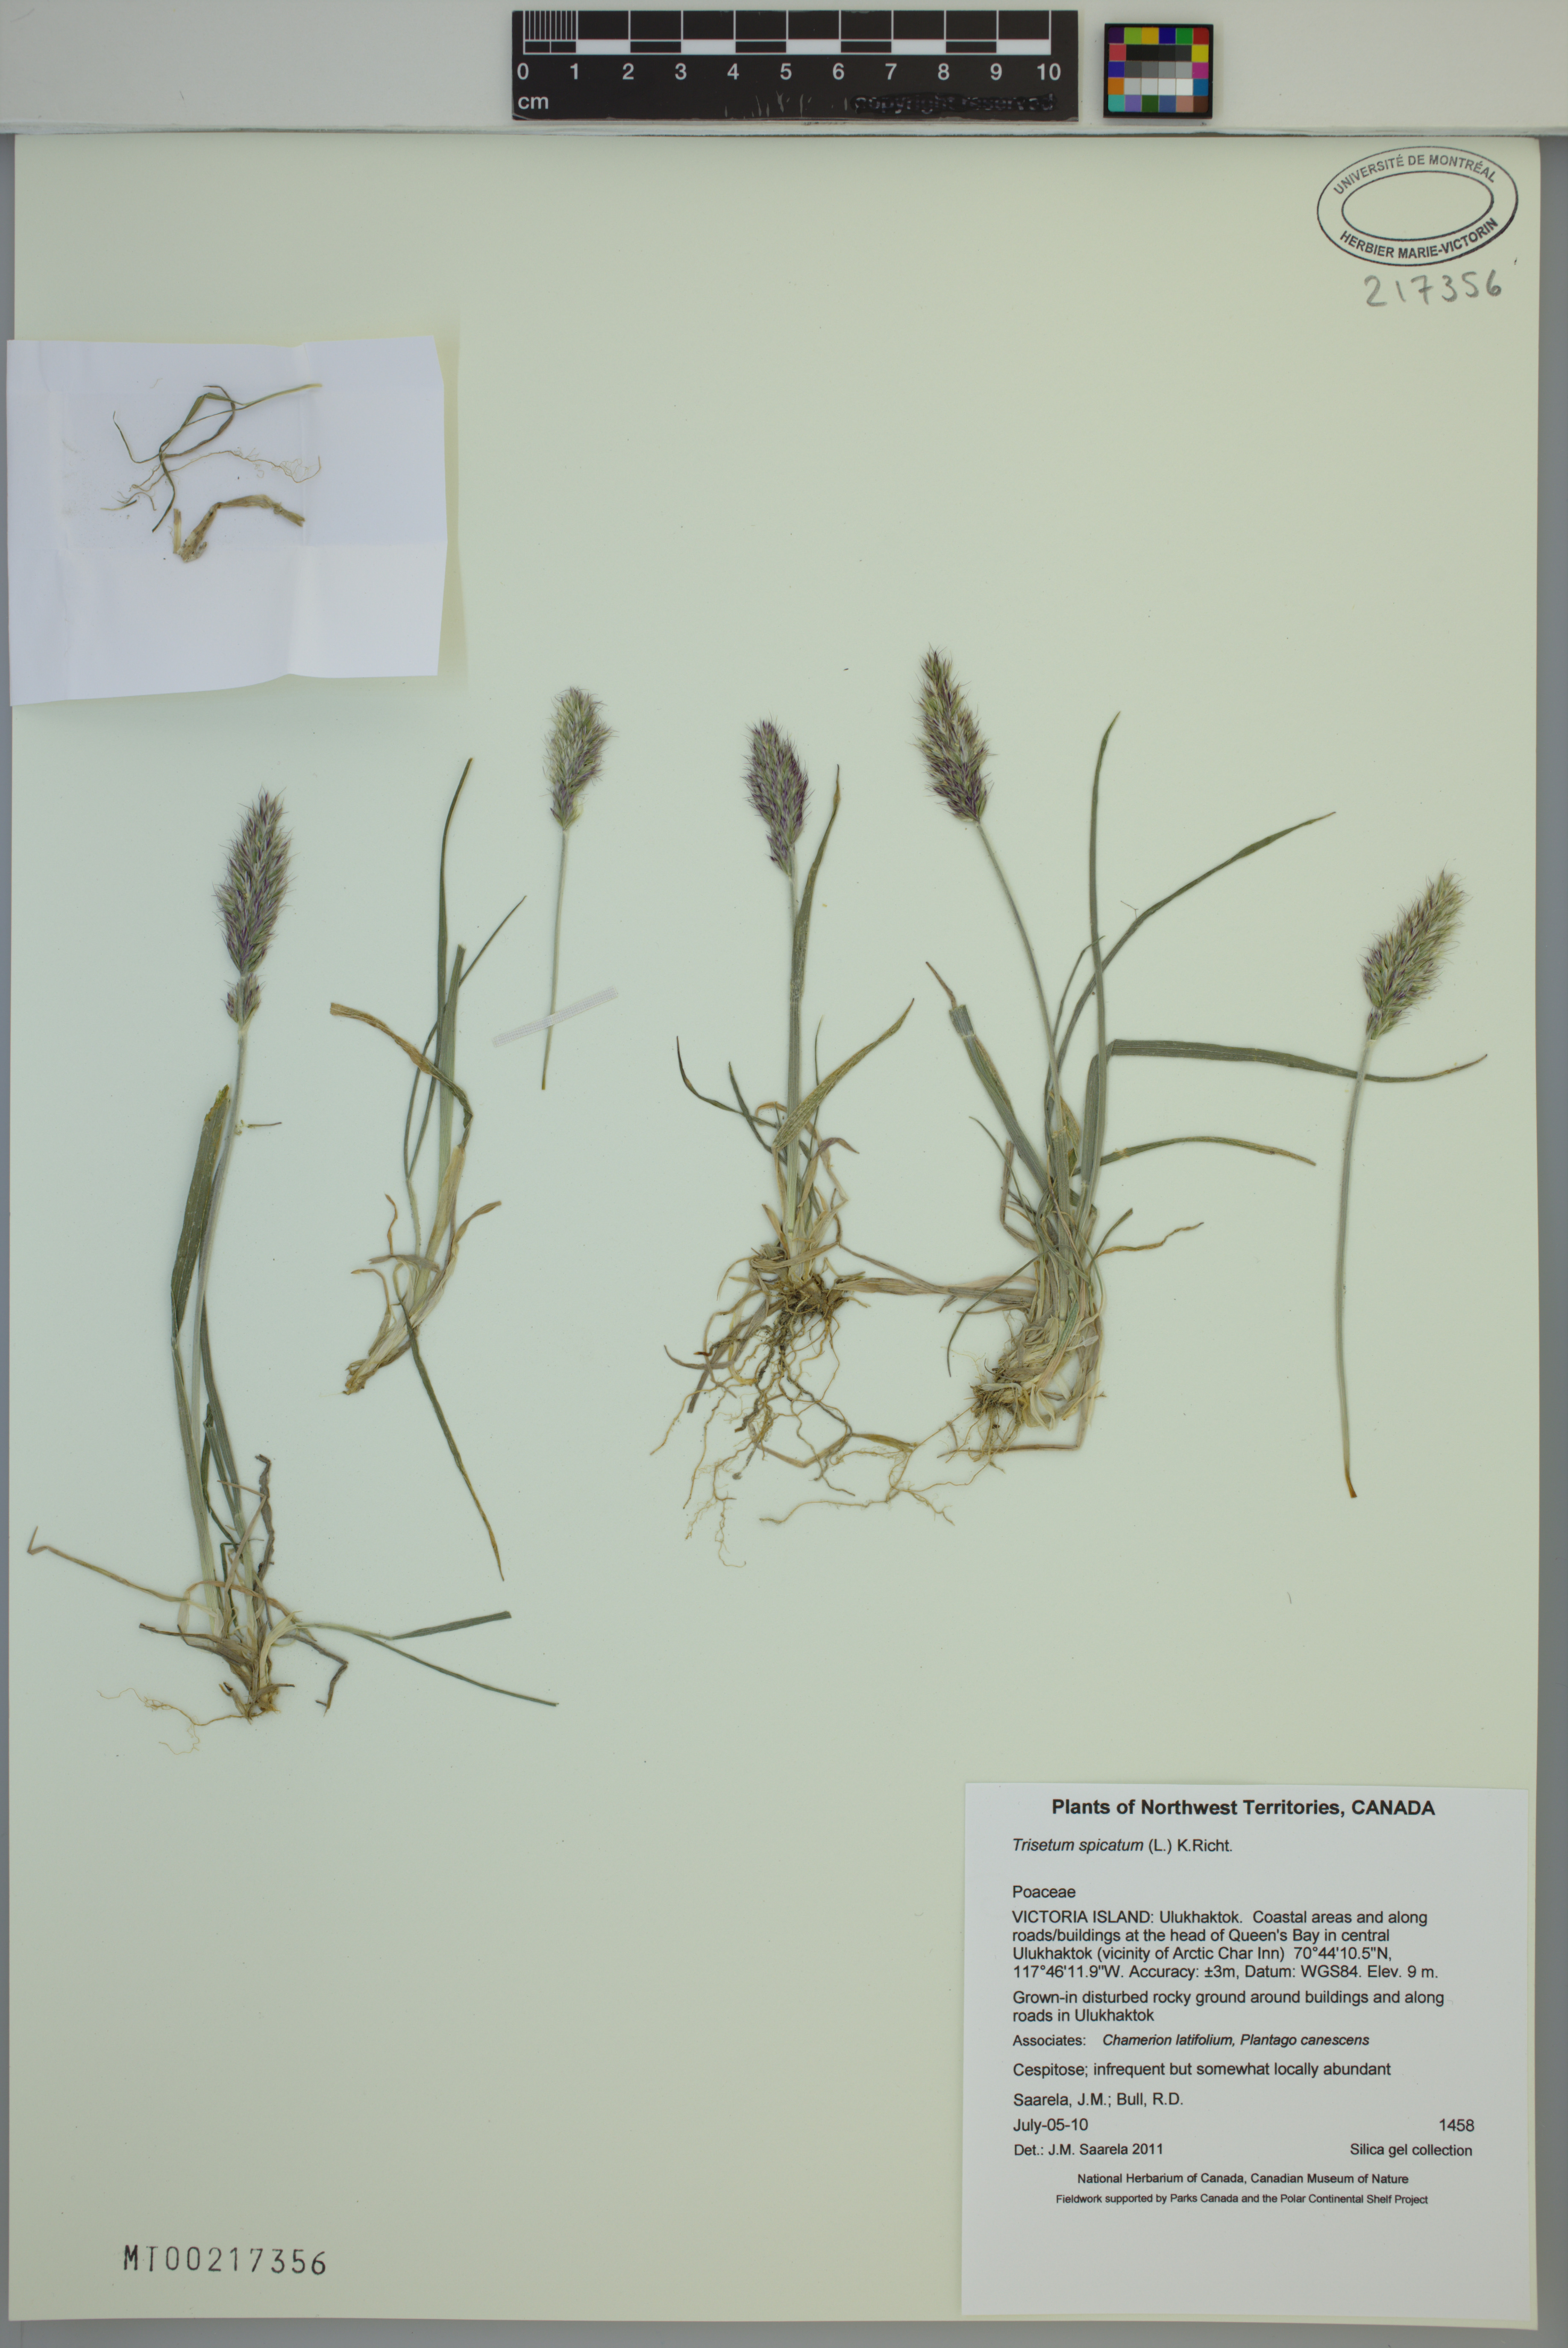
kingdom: Plantae
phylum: Tracheophyta
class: Liliopsida
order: Poales
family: Poaceae
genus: Koeleria
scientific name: Koeleria spicata
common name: Mountain trisetum
